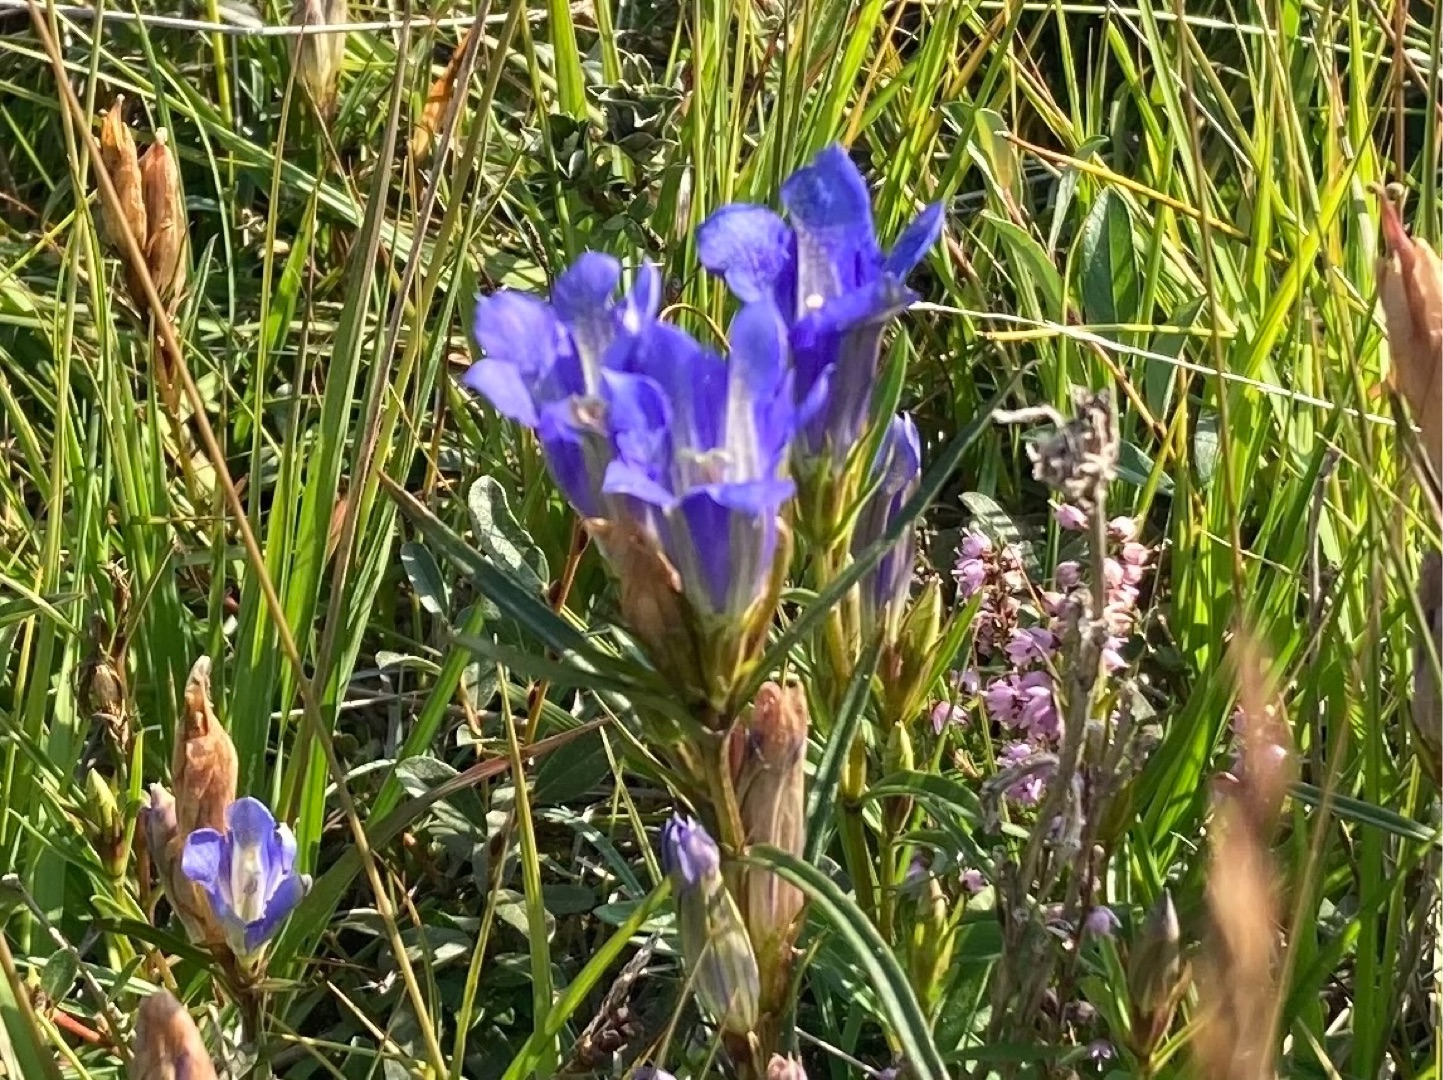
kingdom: Plantae
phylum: Tracheophyta
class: Magnoliopsida
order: Gentianales
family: Gentianaceae
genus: Gentiana
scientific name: Gentiana pneumonanthe
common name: Klokke-ensian
